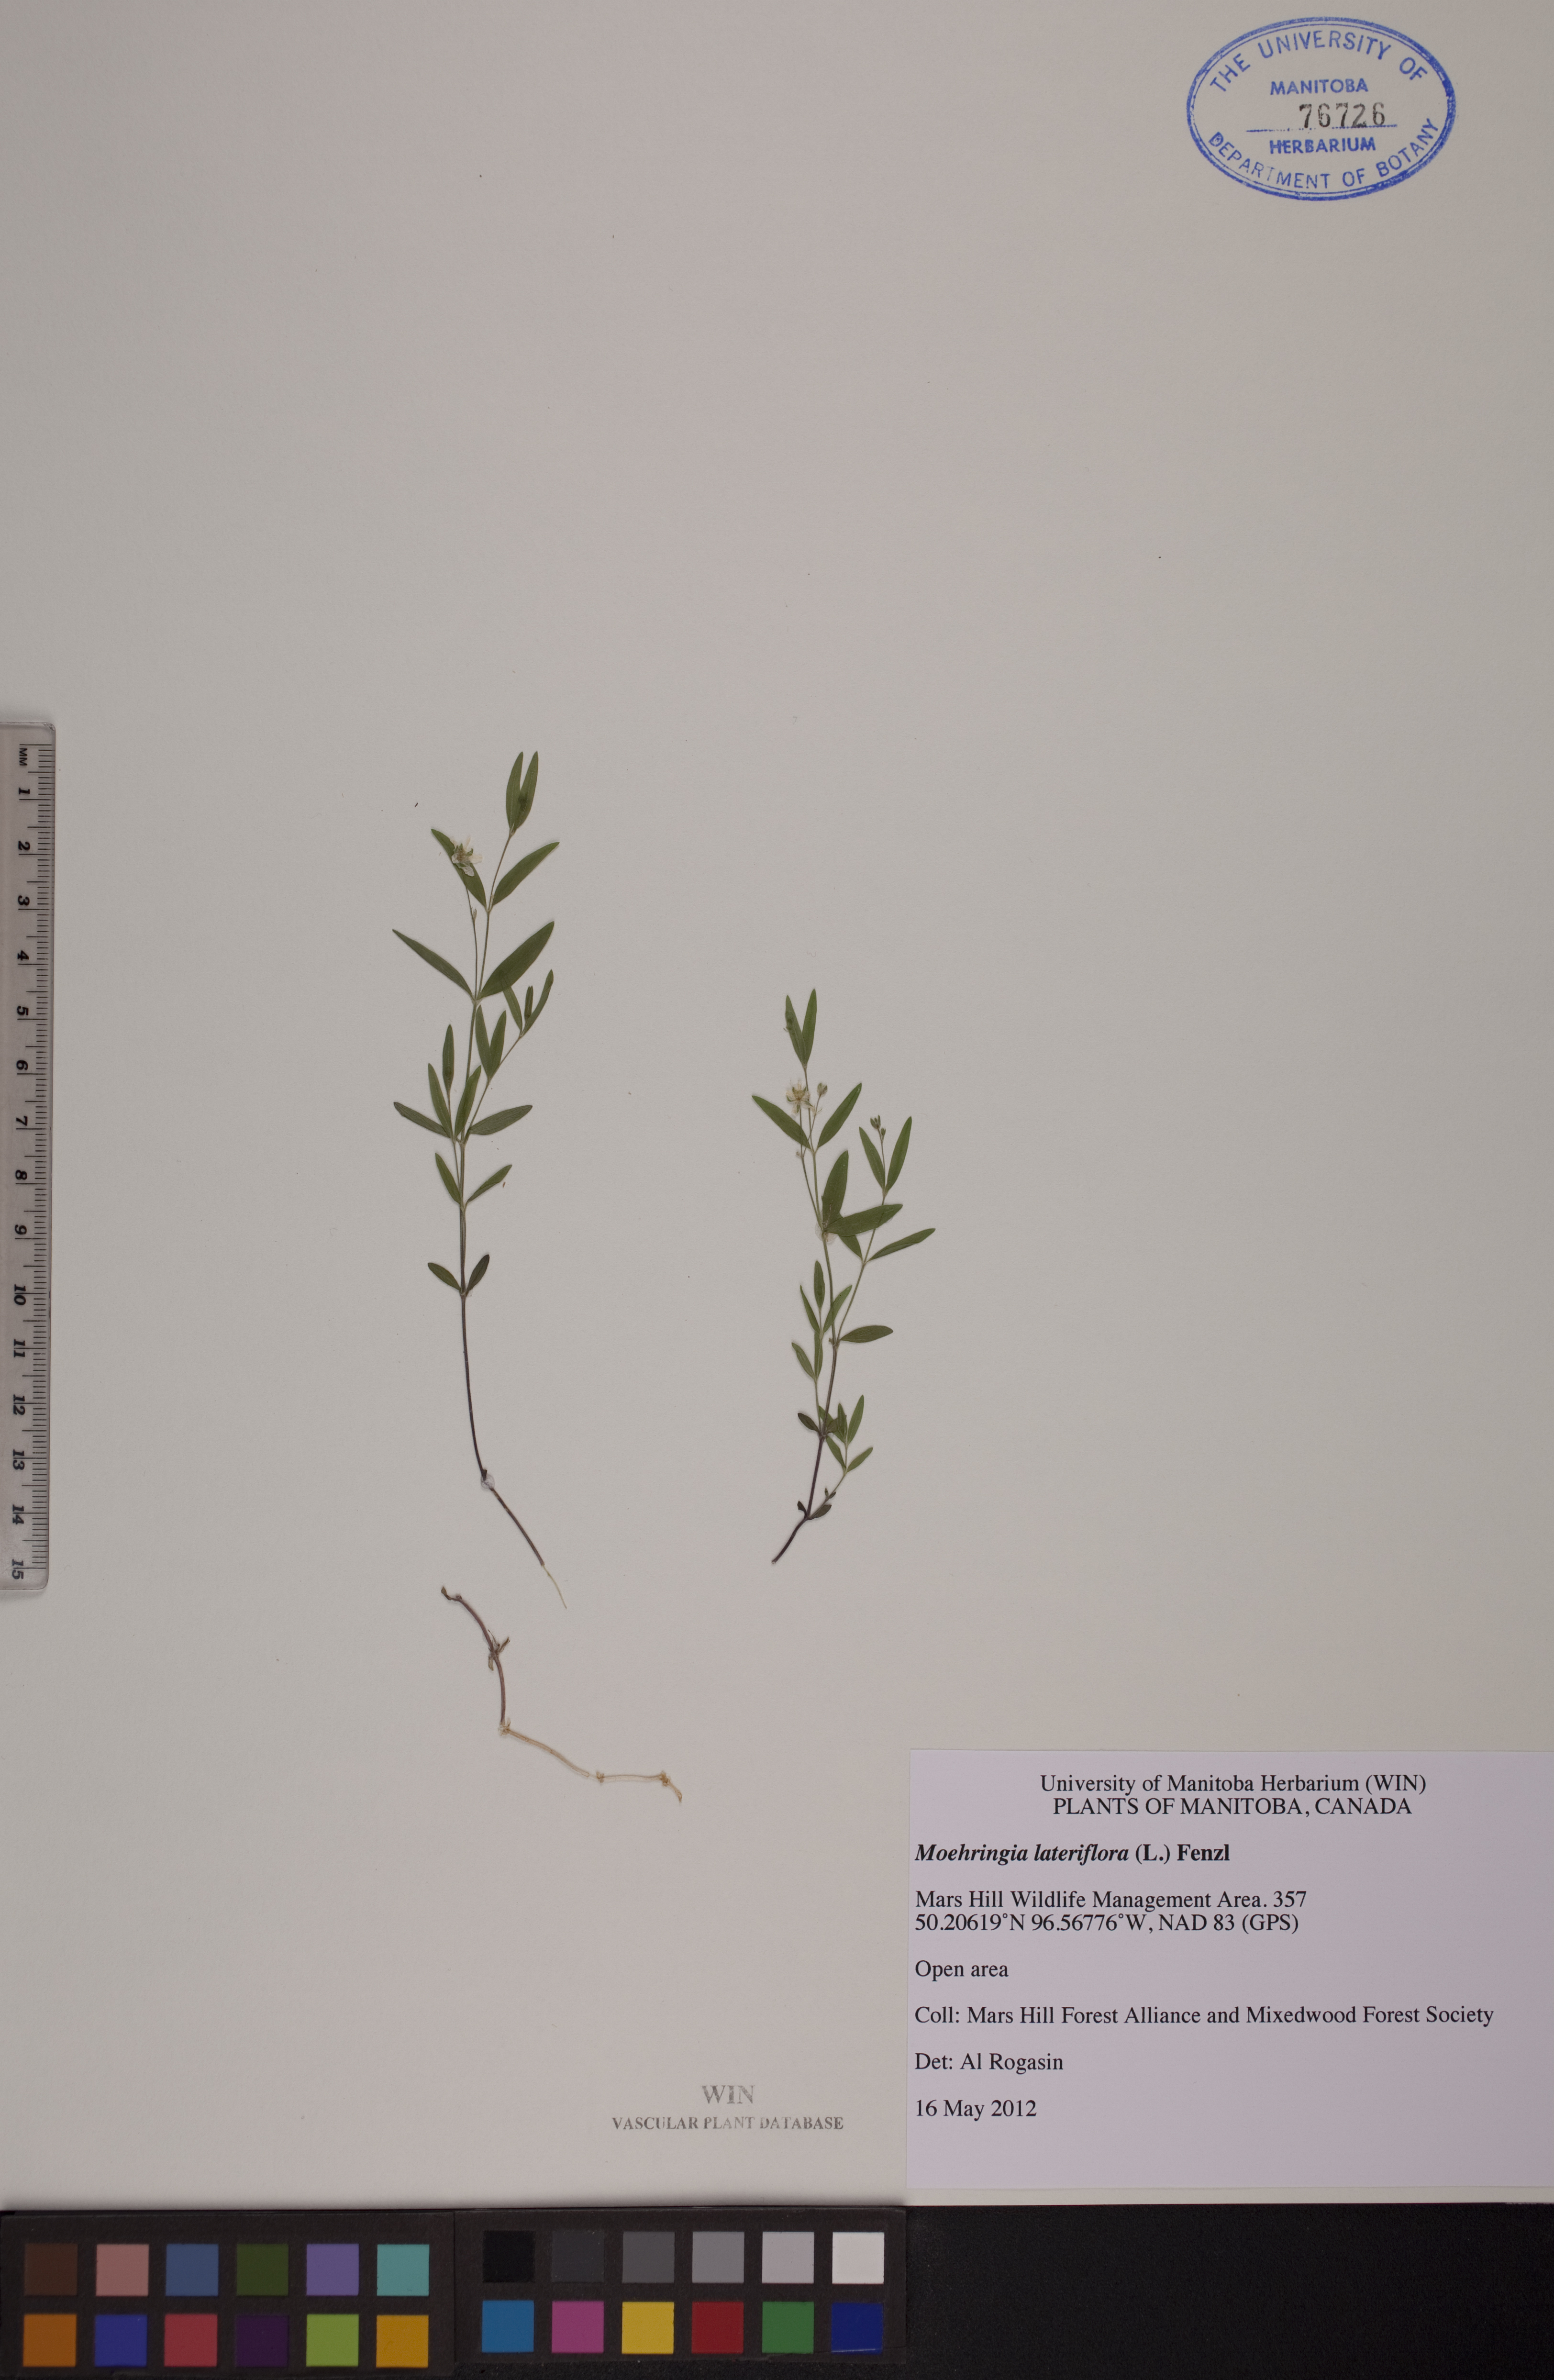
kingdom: Plantae
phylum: Tracheophyta
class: Magnoliopsida
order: Caryophyllales
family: Caryophyllaceae
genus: Moehringia
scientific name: Moehringia lateriflora
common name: Blunt-leaved sandwort
